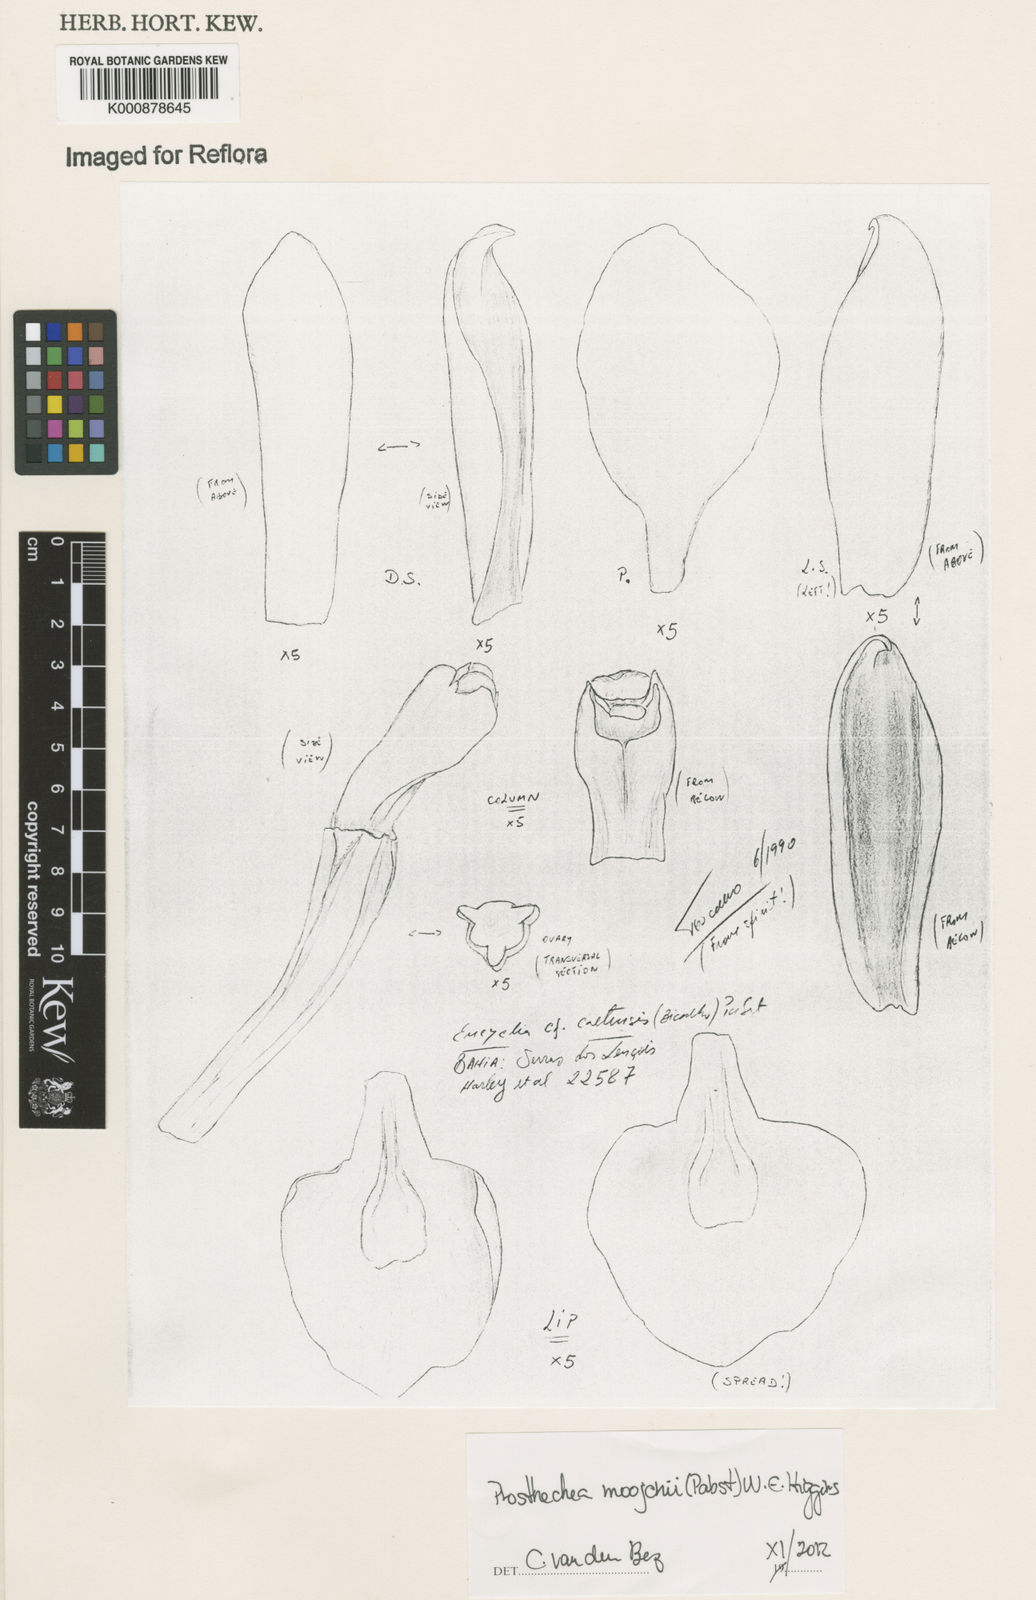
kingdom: Plantae
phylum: Tracheophyta
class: Liliopsida
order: Asparagales
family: Orchidaceae
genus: Prosthechea
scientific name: Prosthechea moojenii
